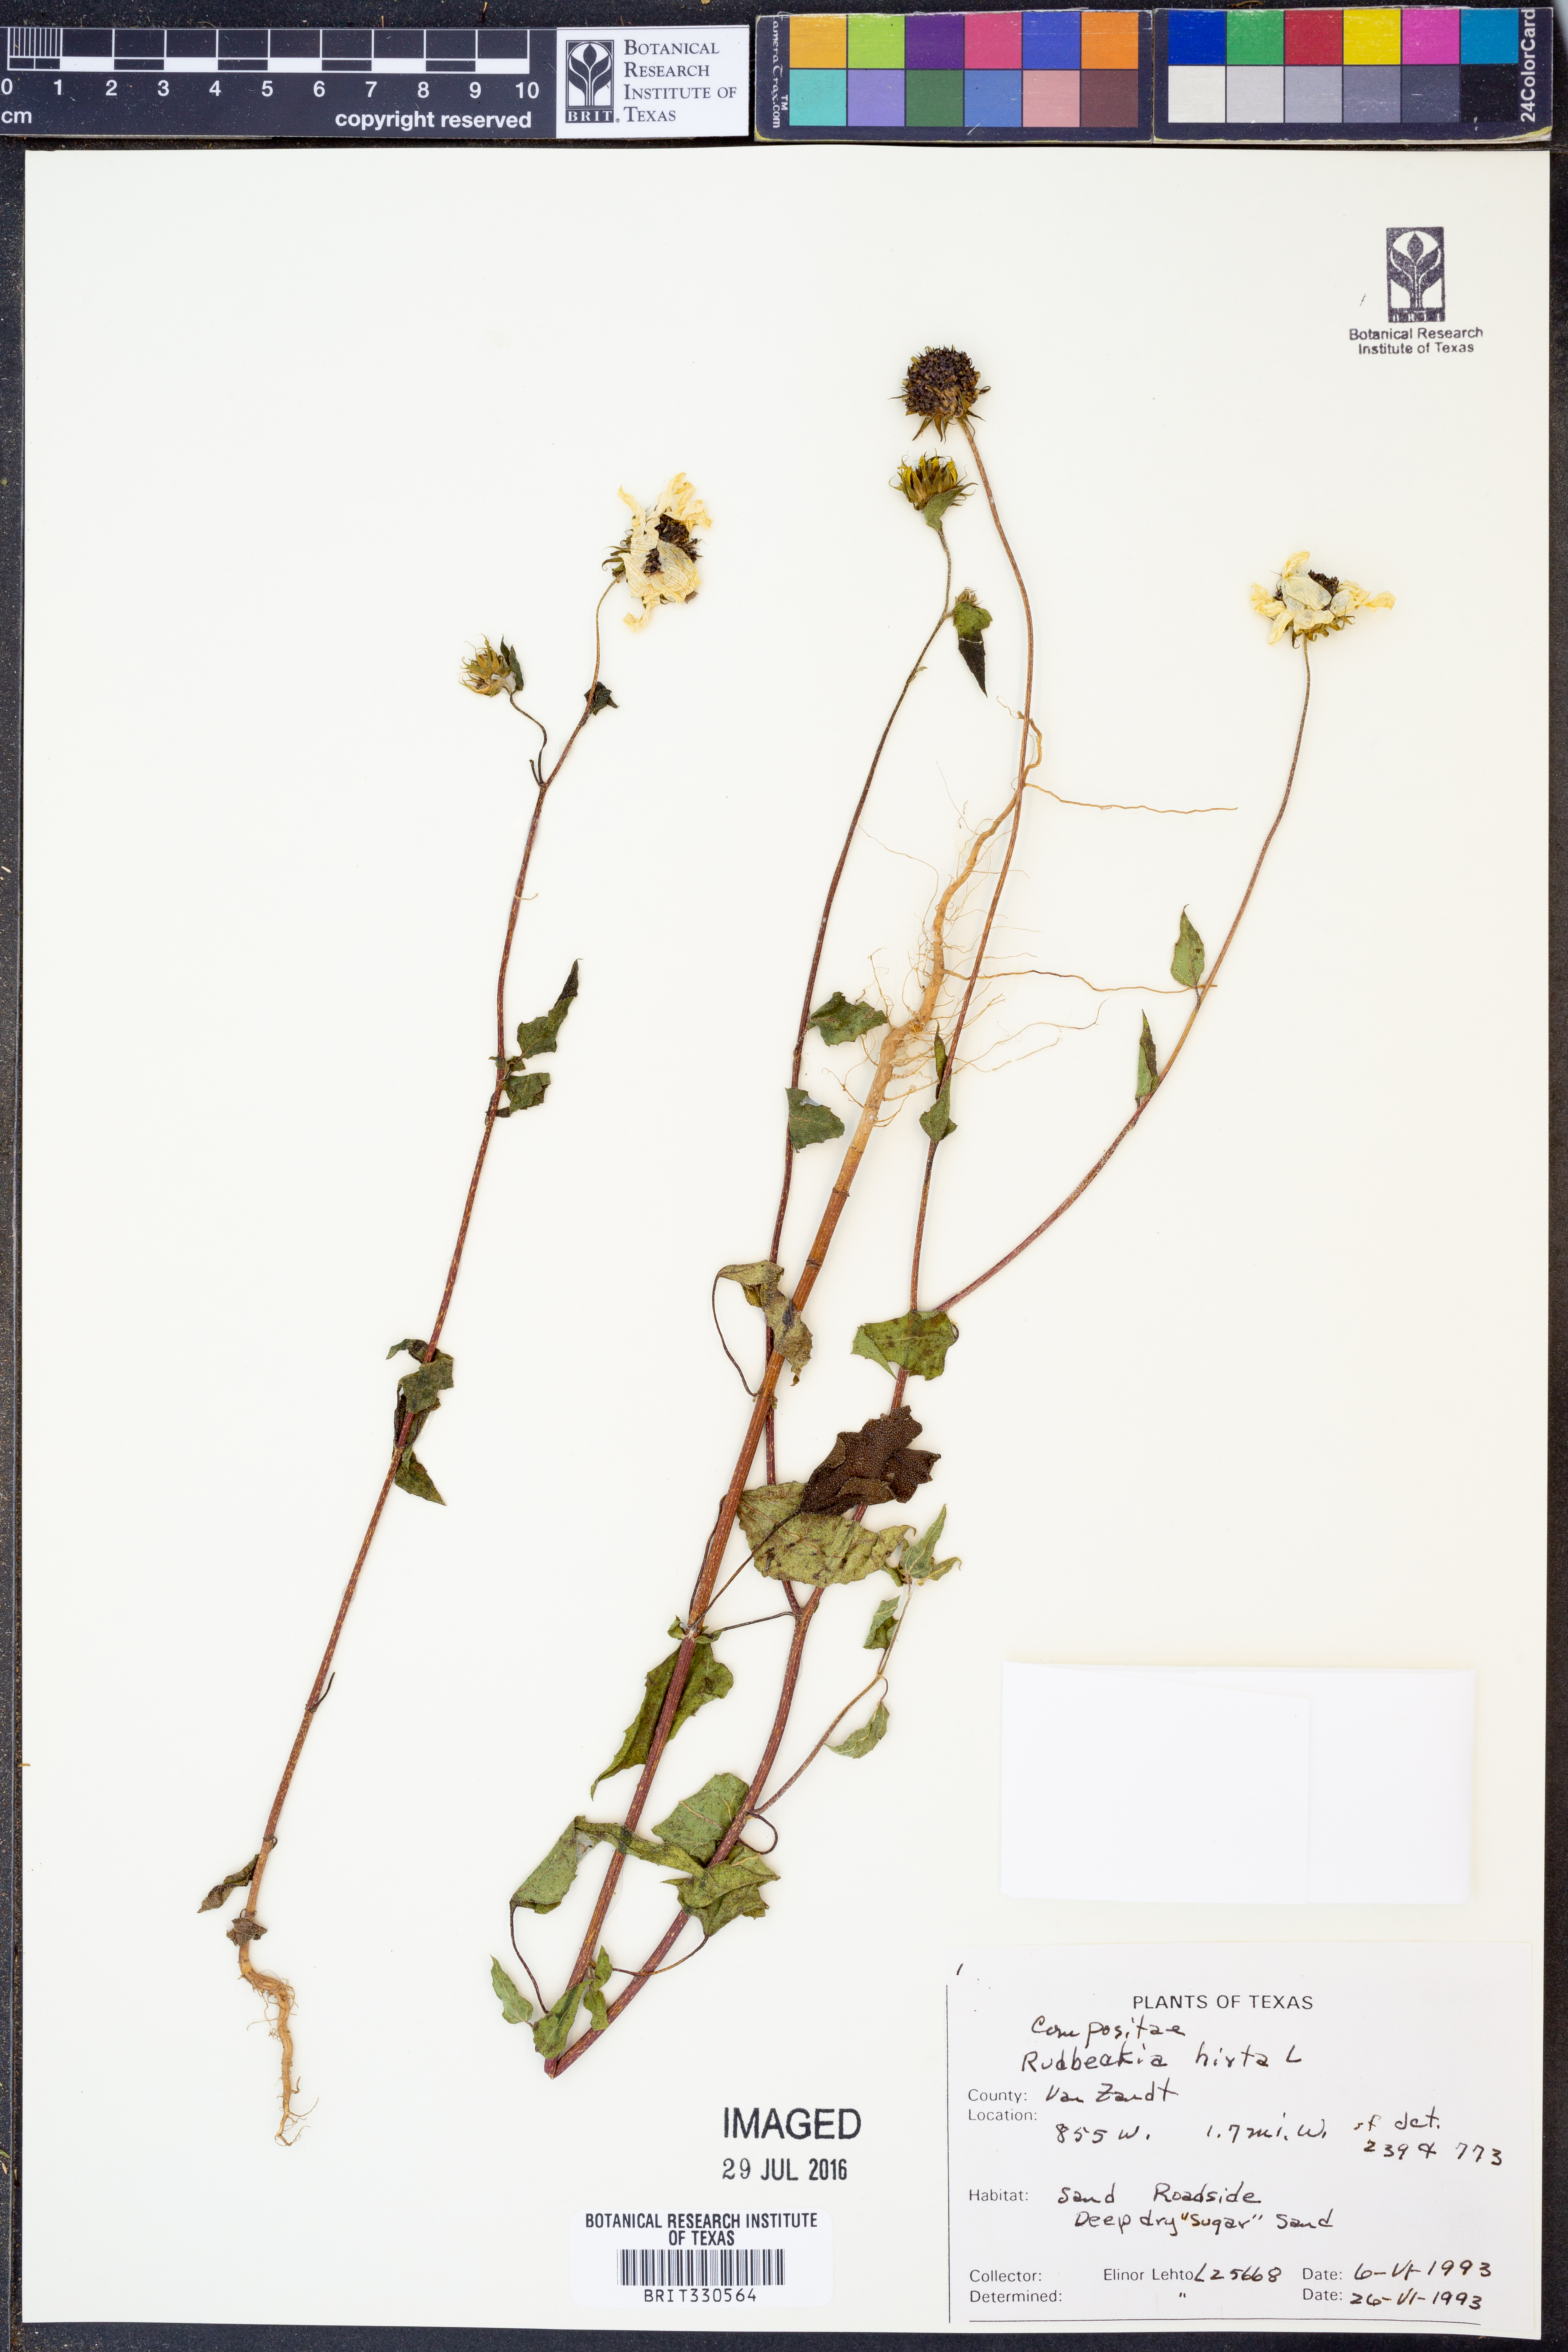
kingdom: Plantae
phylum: Tracheophyta
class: Magnoliopsida
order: Asterales
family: Asteraceae
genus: Rudbeckia
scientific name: Rudbeckia hirta
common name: Black-eyed-susan
